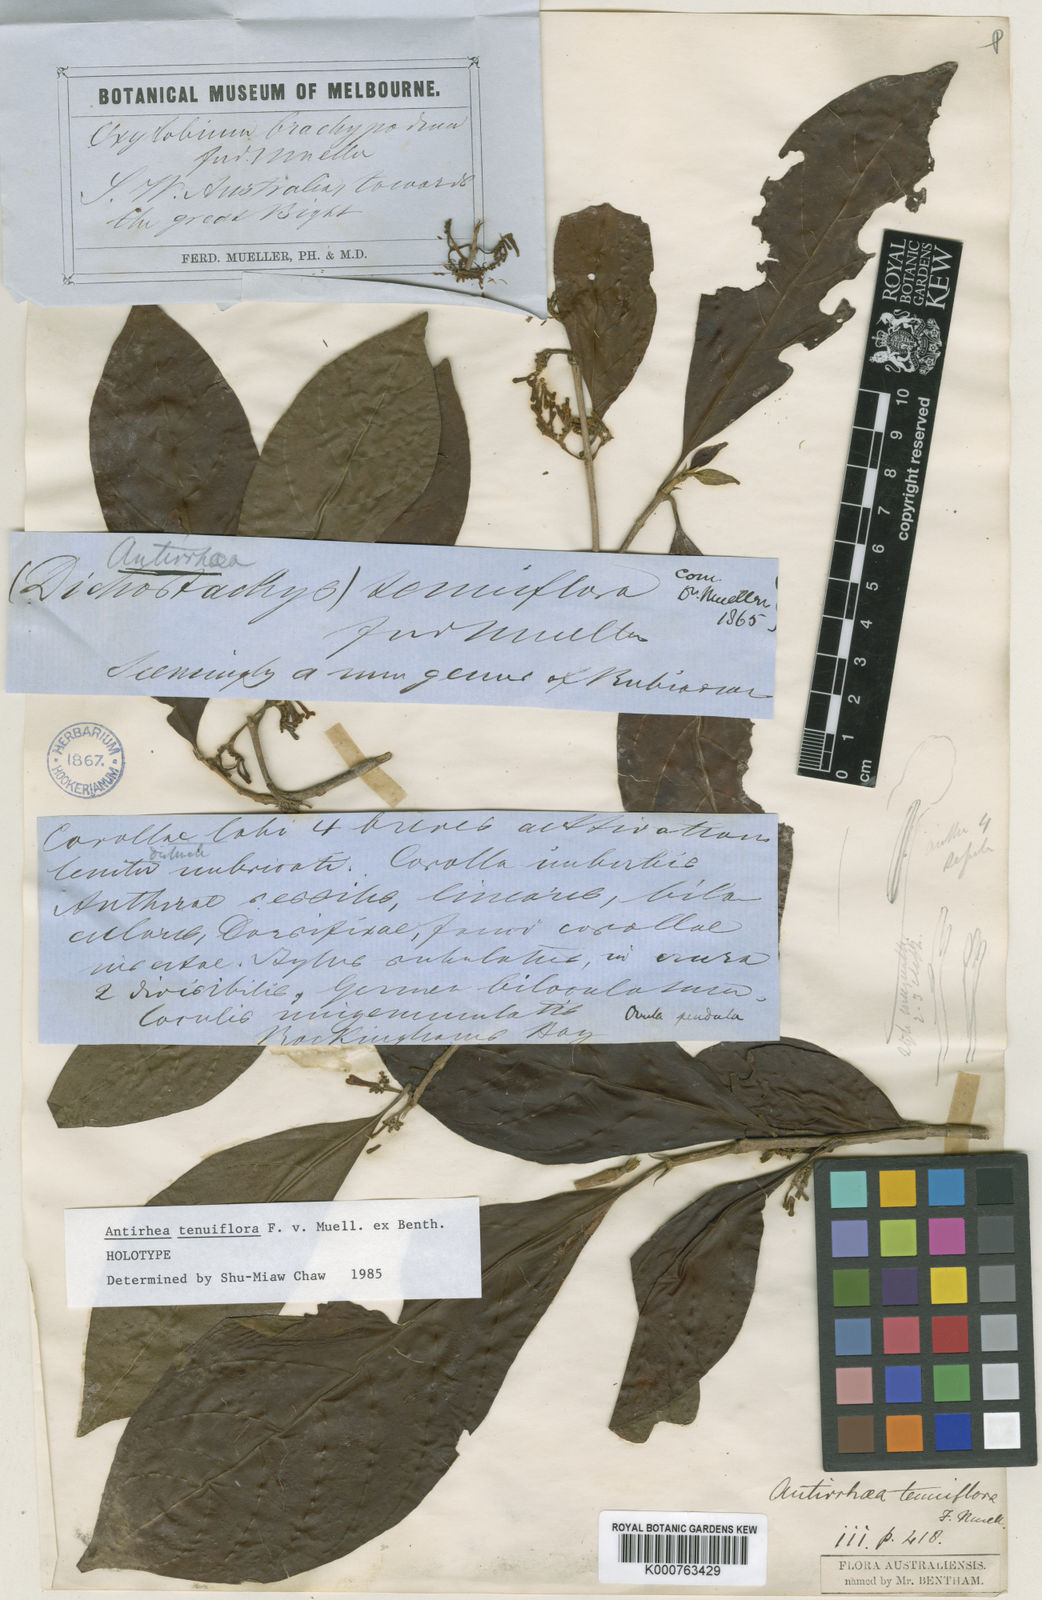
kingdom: Plantae
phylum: Tracheophyta
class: Magnoliopsida
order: Gentianales
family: Rubiaceae
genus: Guettardella
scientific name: Guettardella tenuiflora
